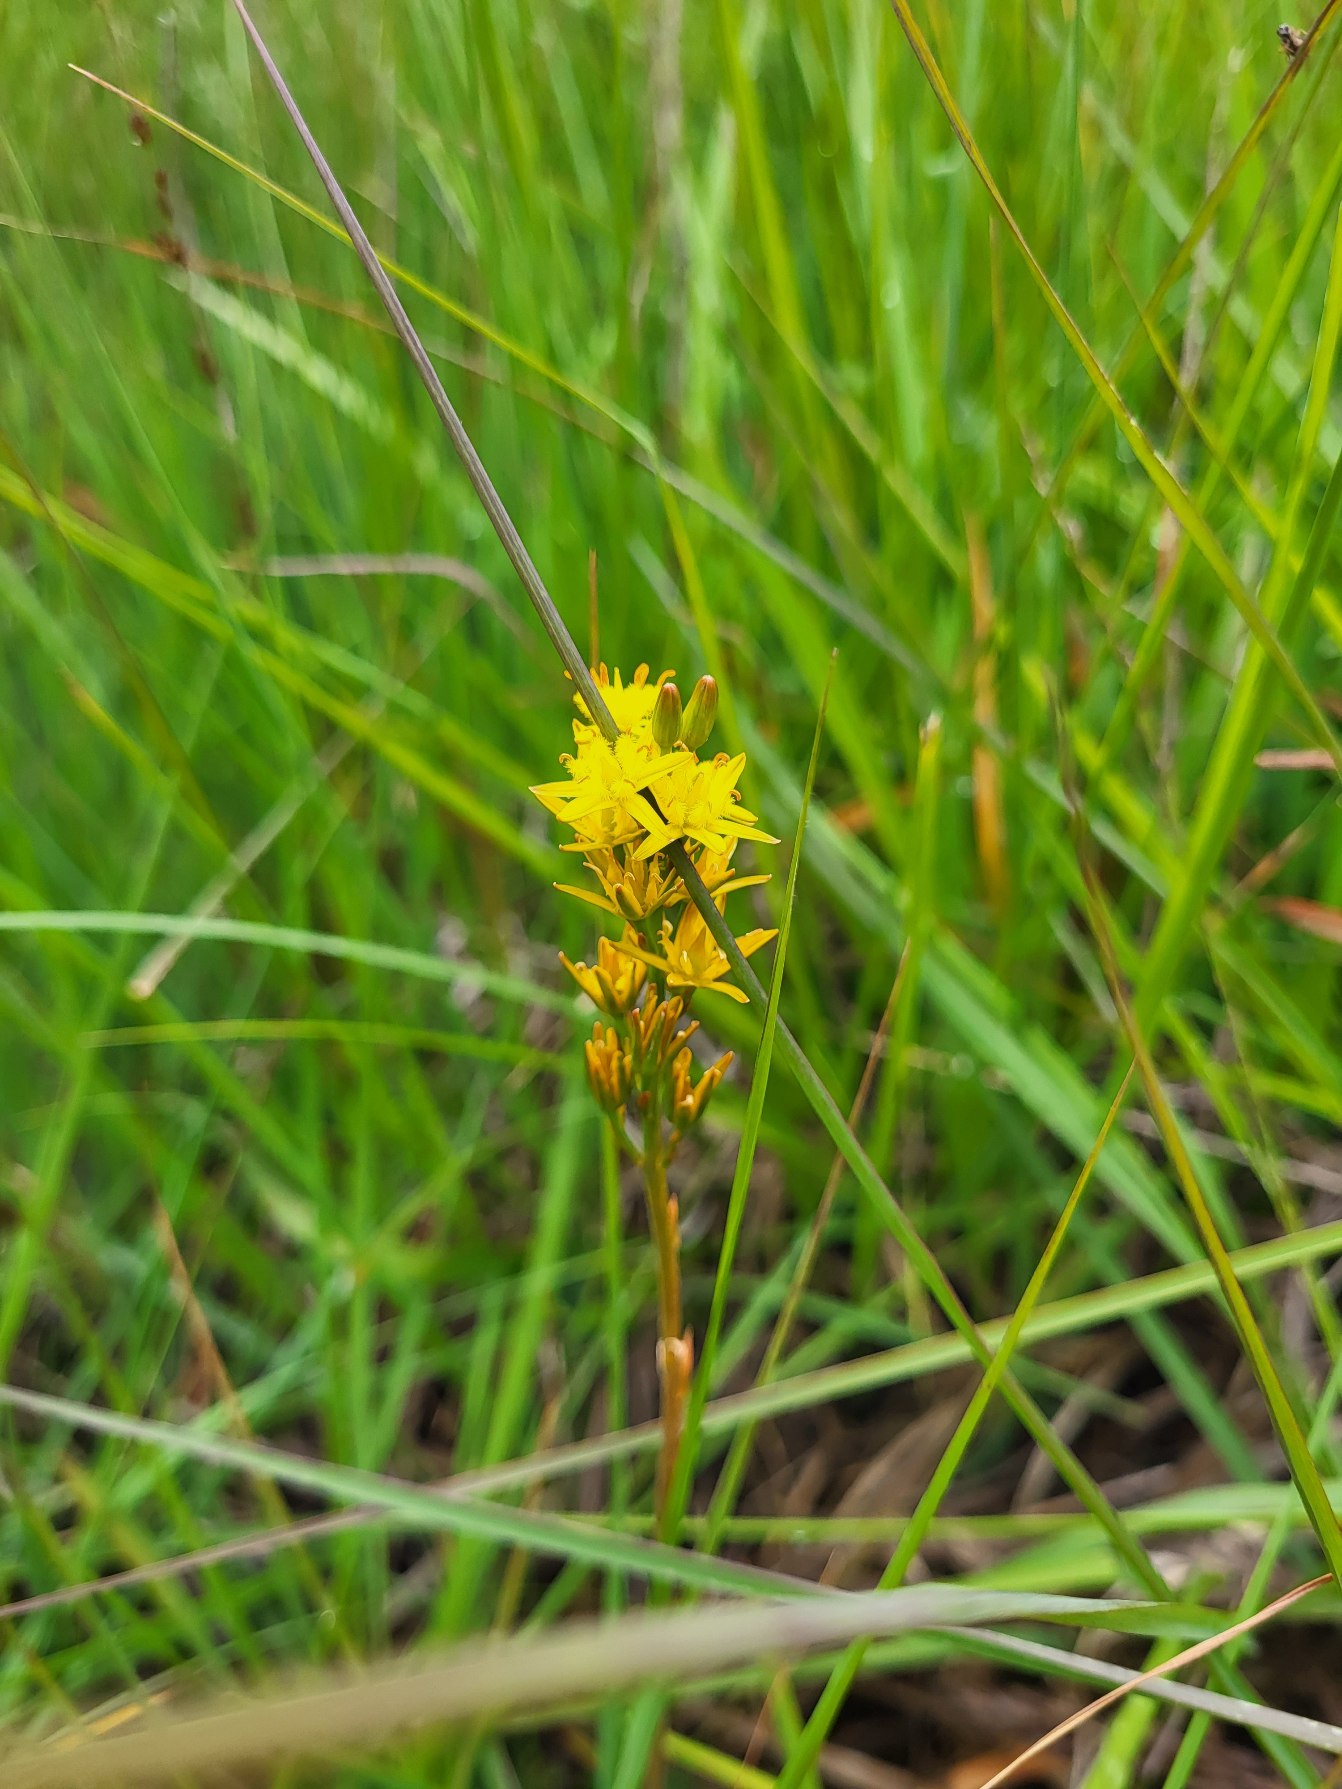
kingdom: Plantae
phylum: Tracheophyta
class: Liliopsida
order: Dioscoreales
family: Nartheciaceae
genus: Narthecium
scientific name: Narthecium ossifragum
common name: Benbræk
